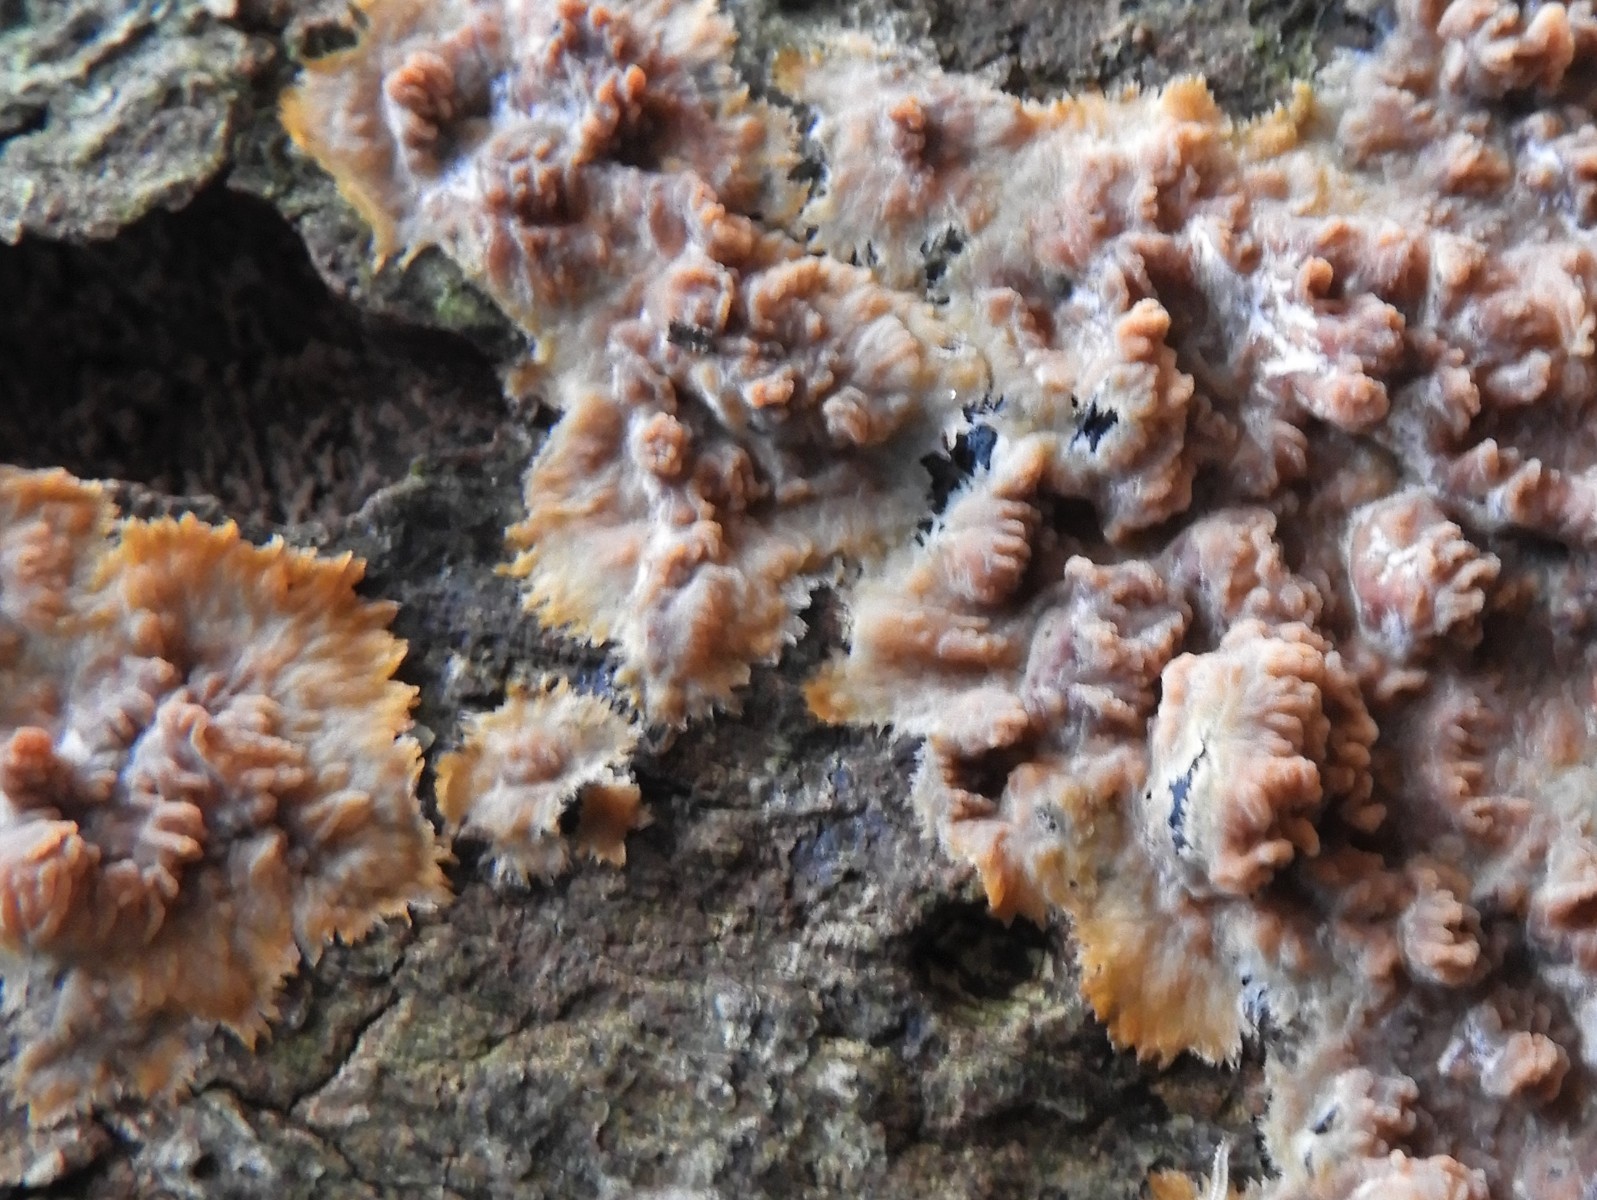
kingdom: Fungi
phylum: Basidiomycota
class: Agaricomycetes
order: Polyporales
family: Meruliaceae
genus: Phlebia
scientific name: Phlebia radiata
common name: stråle-åresvamp
